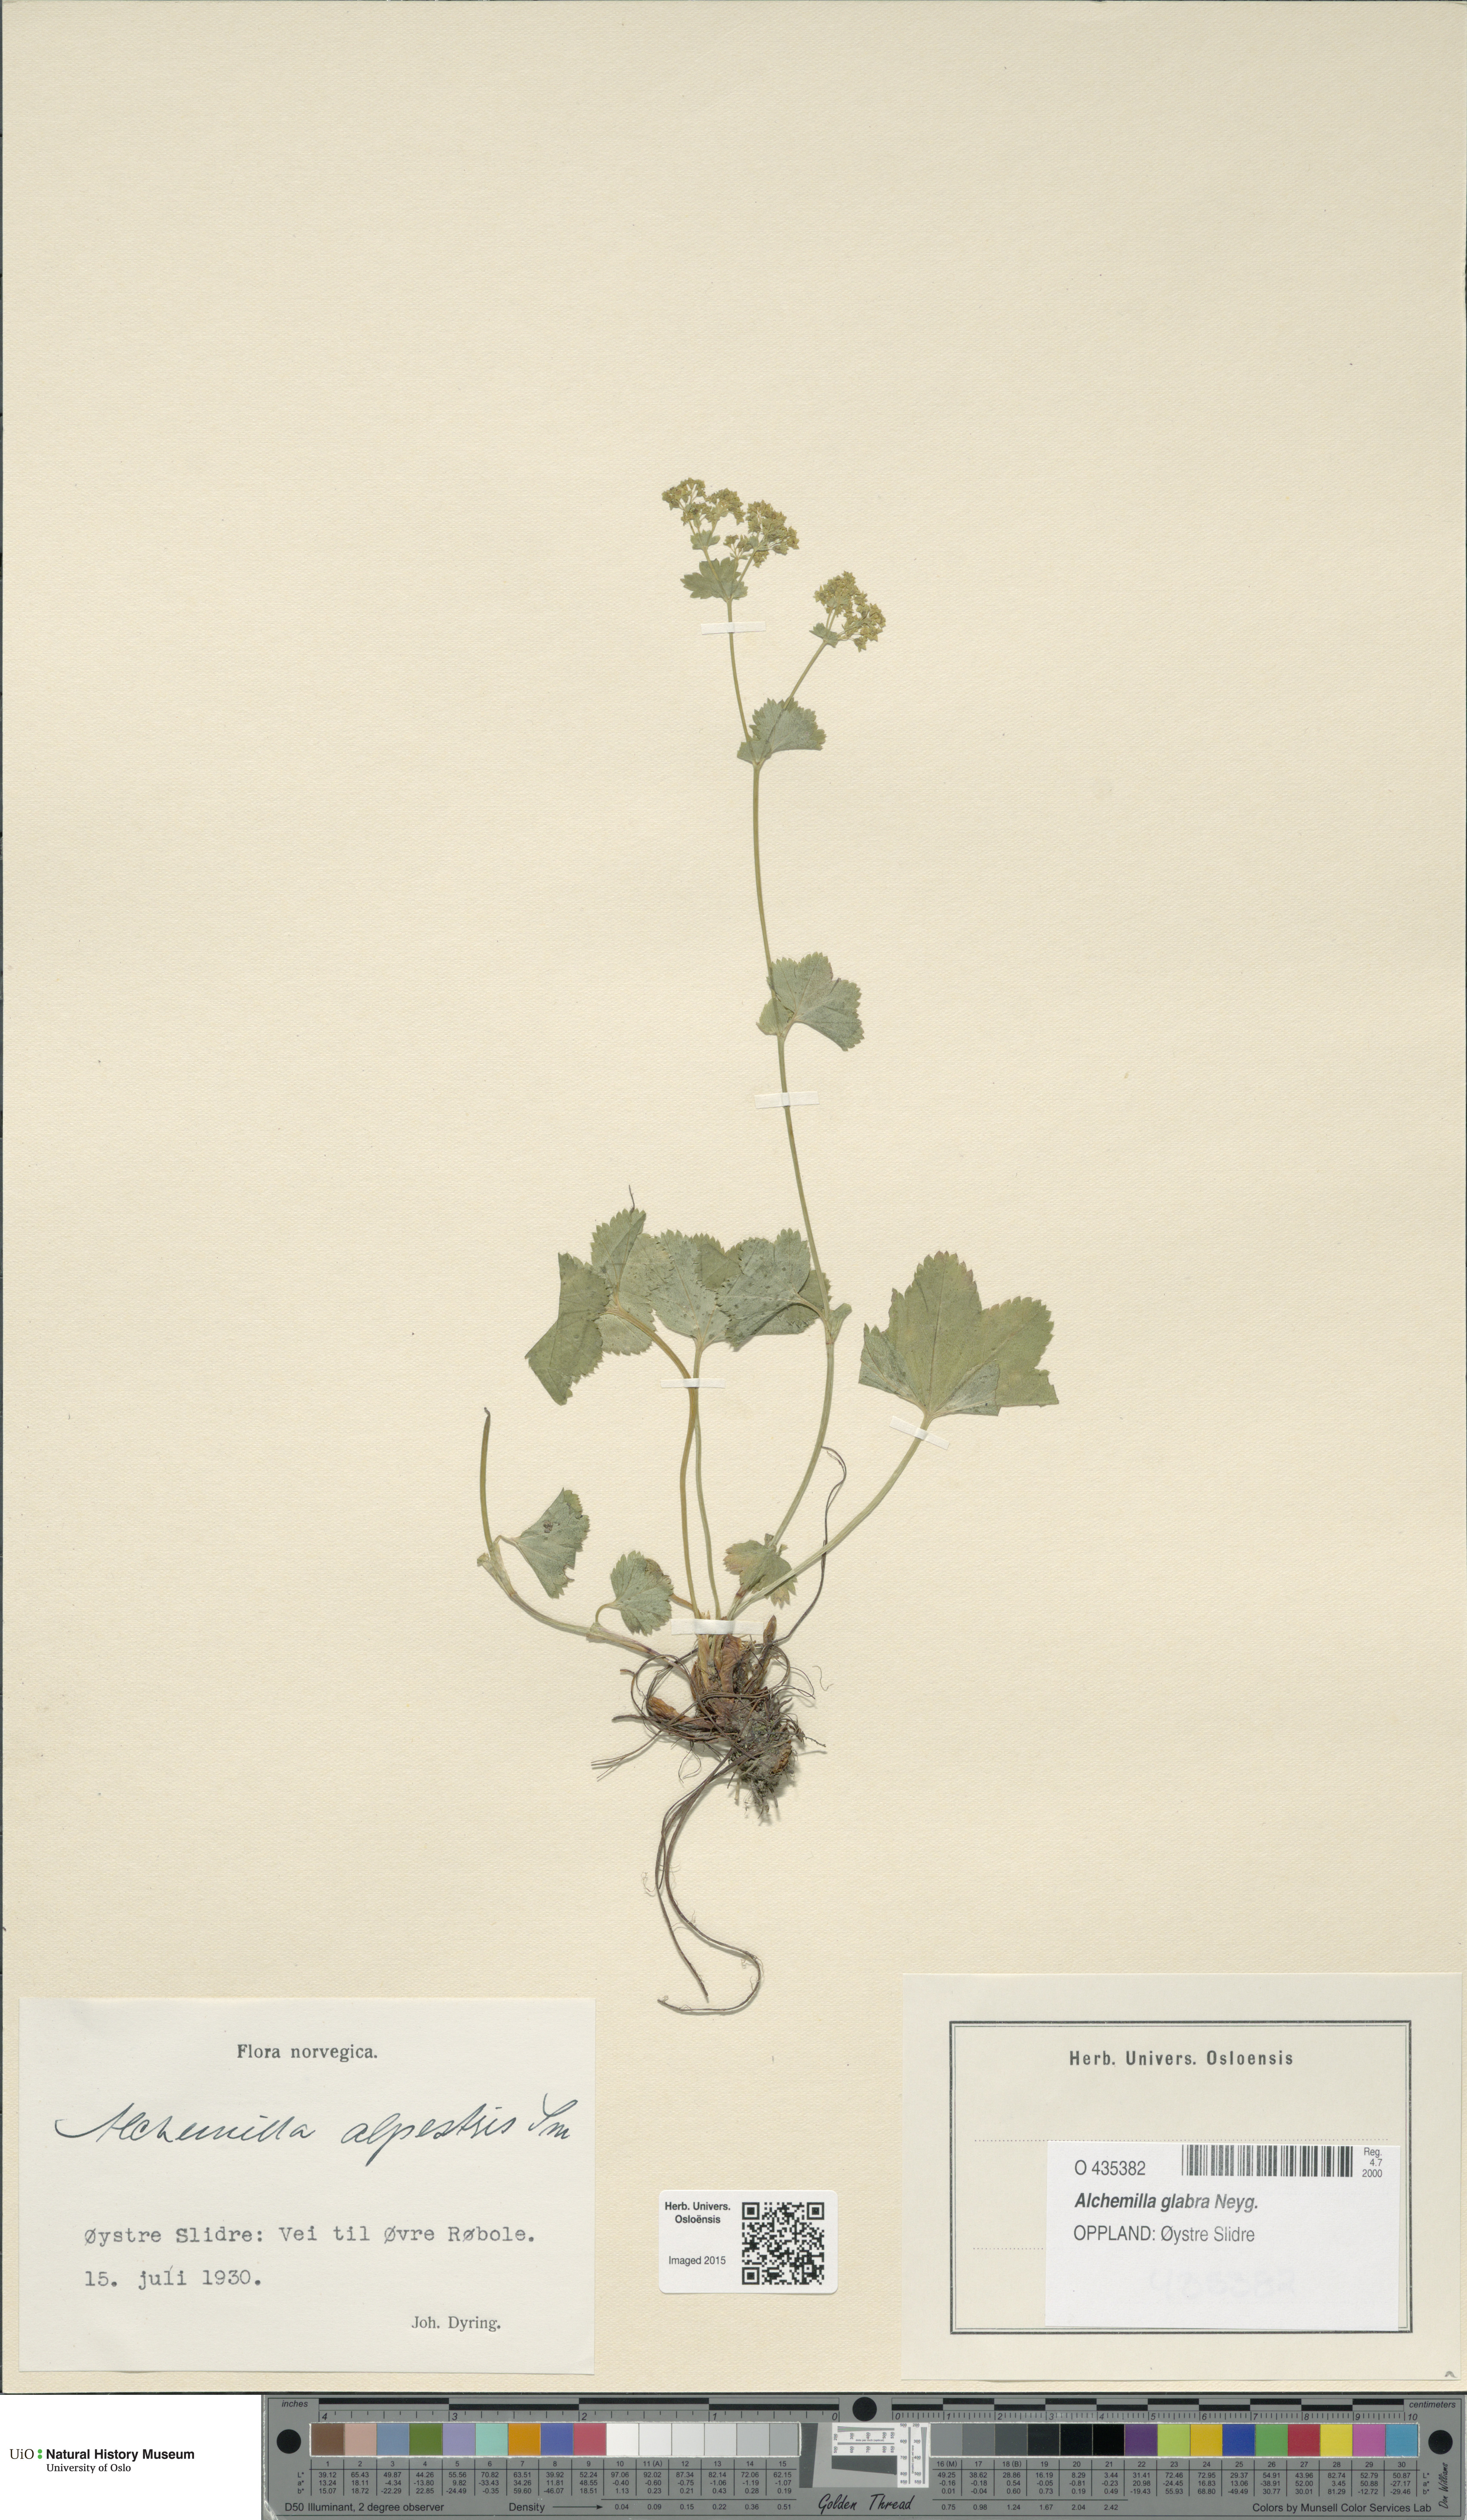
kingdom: Plantae
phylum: Tracheophyta
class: Magnoliopsida
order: Rosales
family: Rosaceae
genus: Alchemilla
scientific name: Alchemilla glabra
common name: Smooth lady's-mantle
